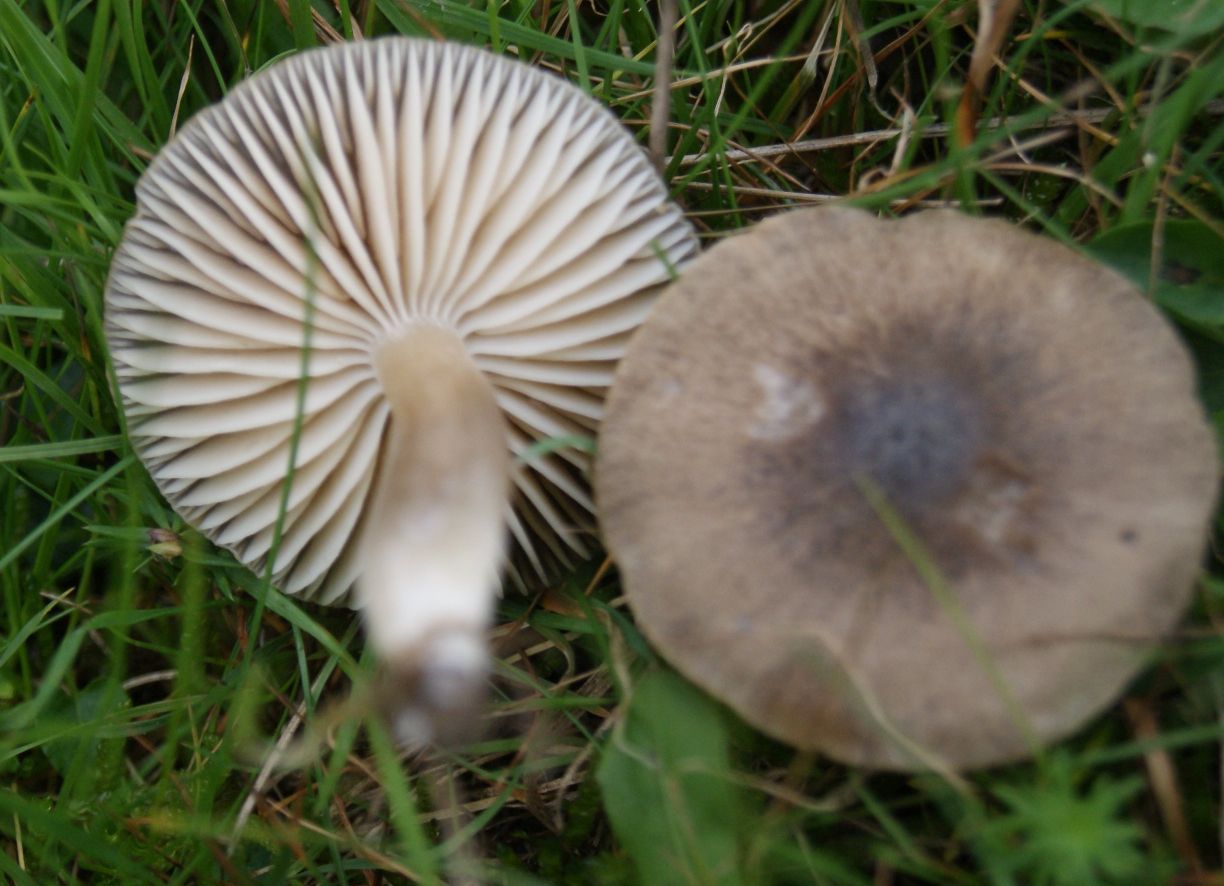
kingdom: Fungi
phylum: Basidiomycota
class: Agaricomycetes
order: Agaricales
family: Hygrophoraceae
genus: Neohygrocybe
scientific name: Neohygrocybe nitrata
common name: stinkende vokshat
